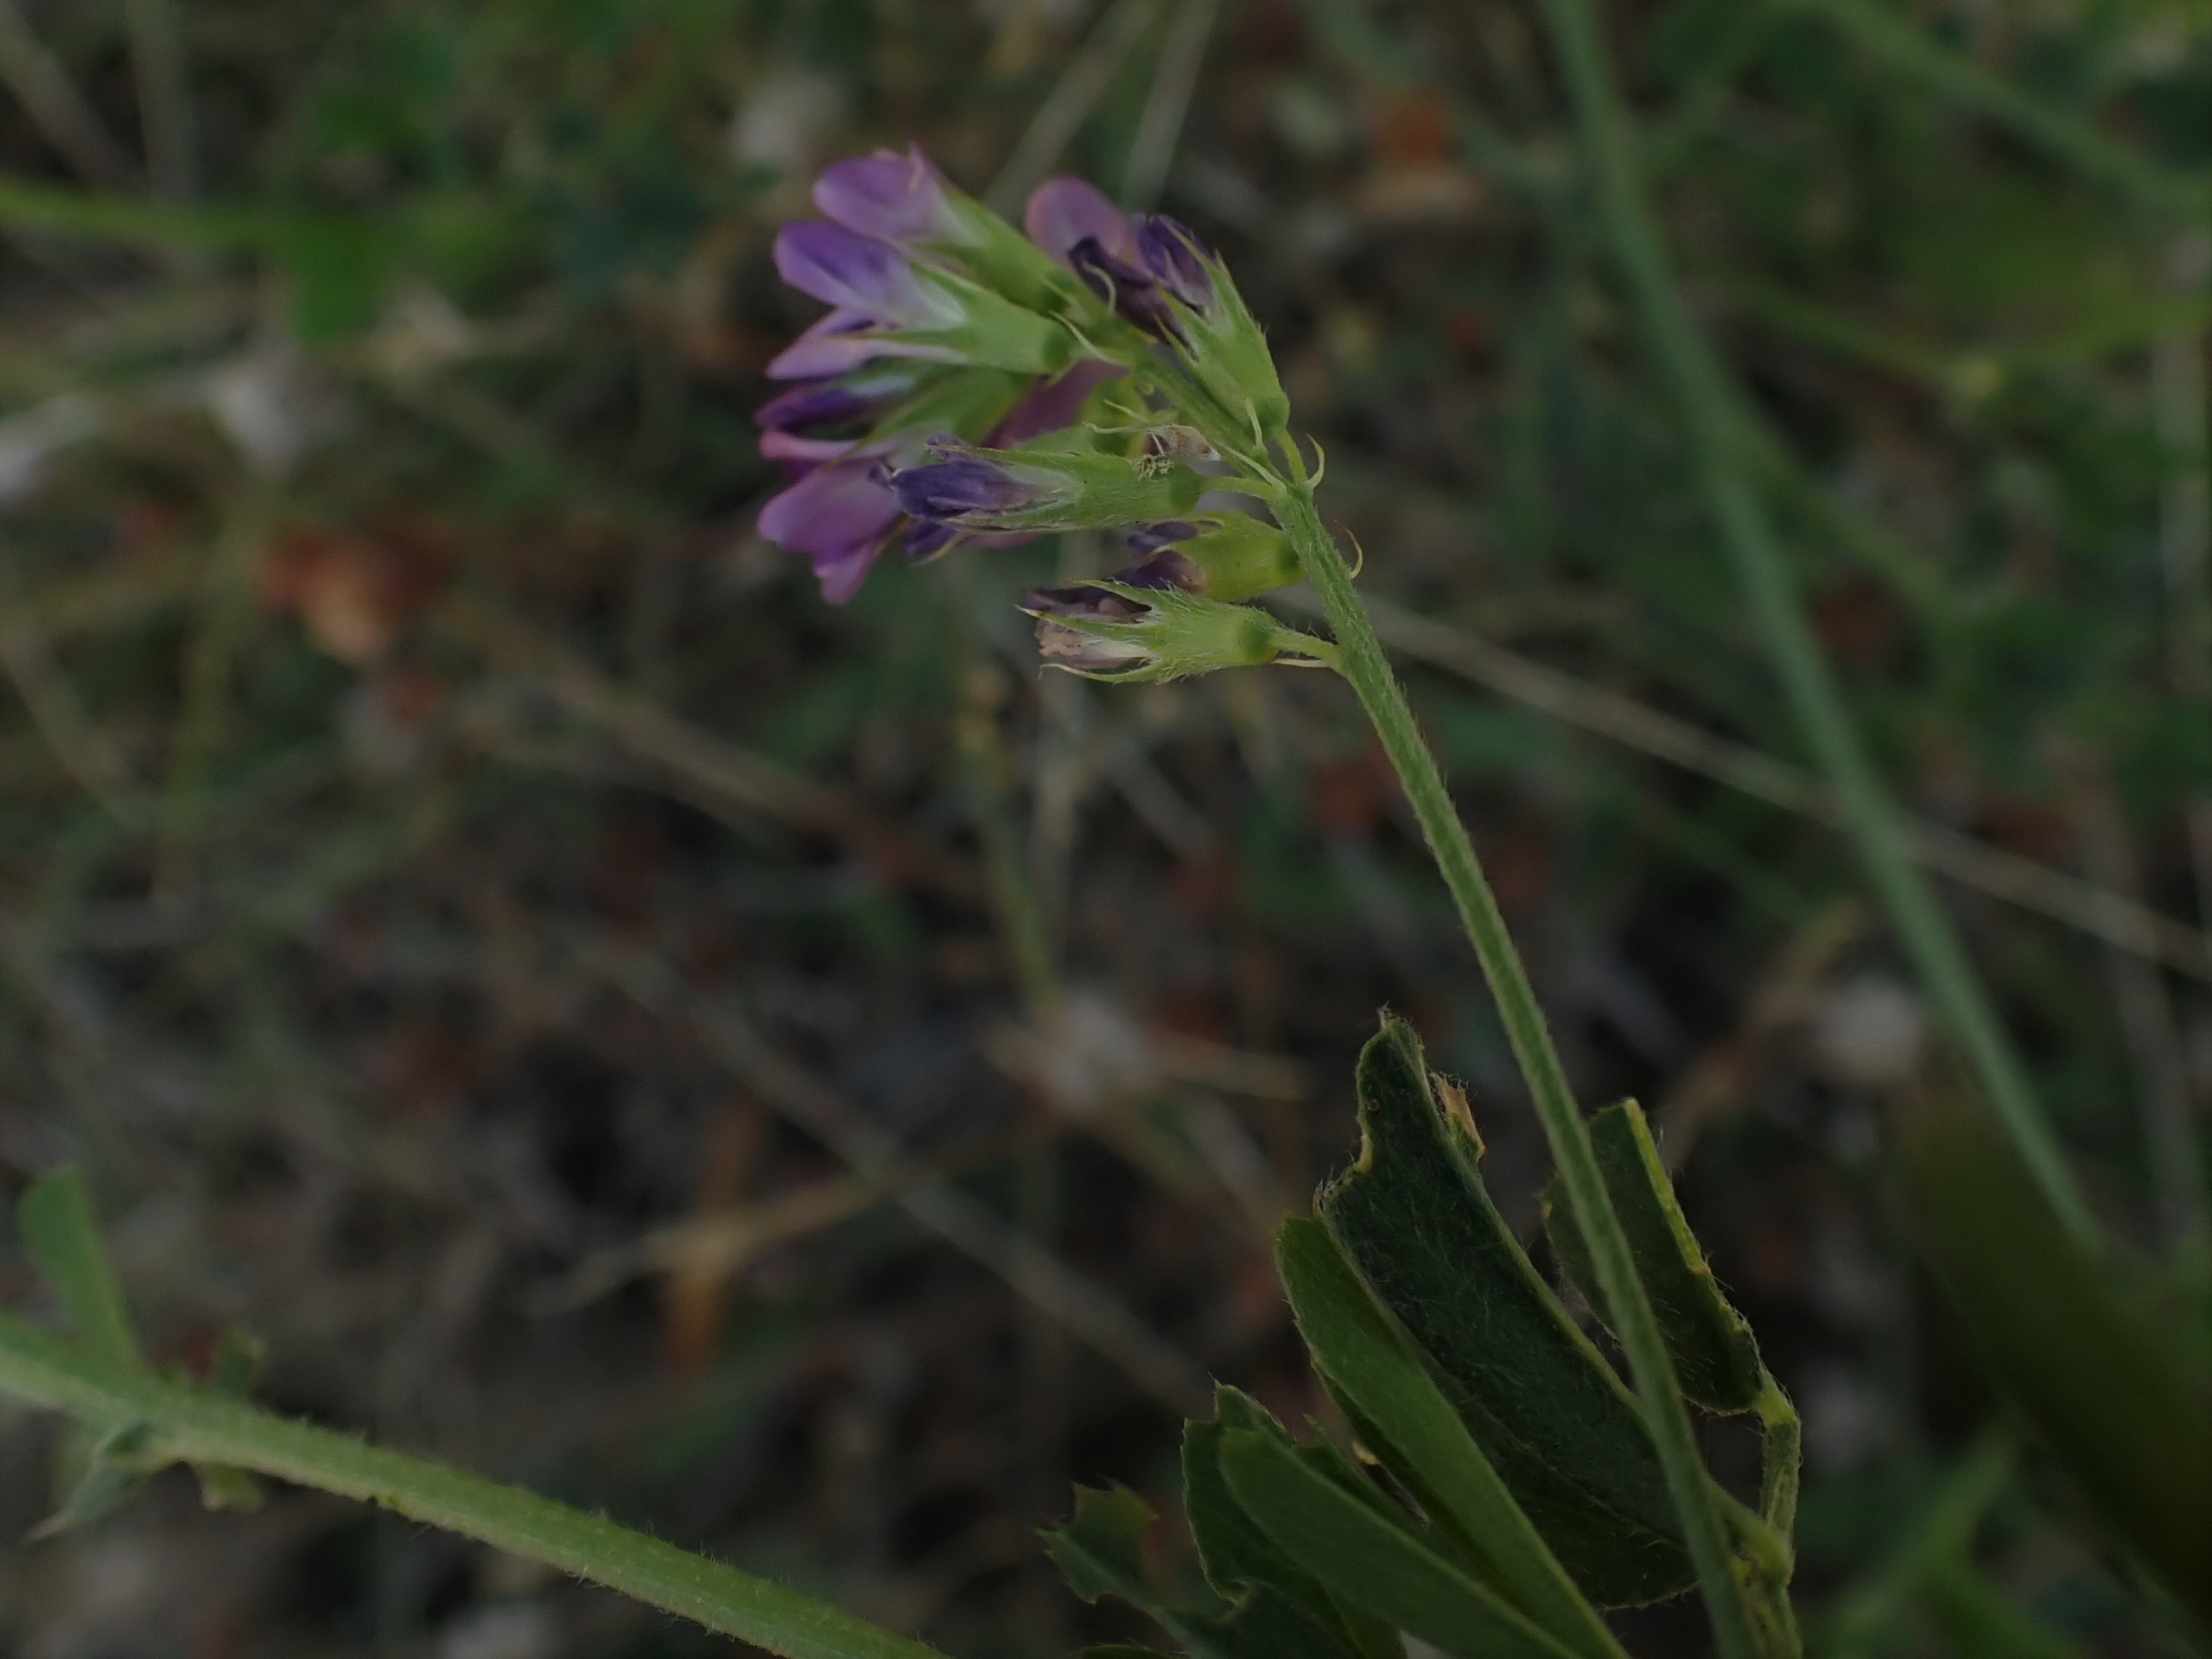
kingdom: Plantae
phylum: Tracheophyta
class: Magnoliopsida
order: Fabales
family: Fabaceae
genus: Medicago
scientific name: Medicago sativa
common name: Lucerne
